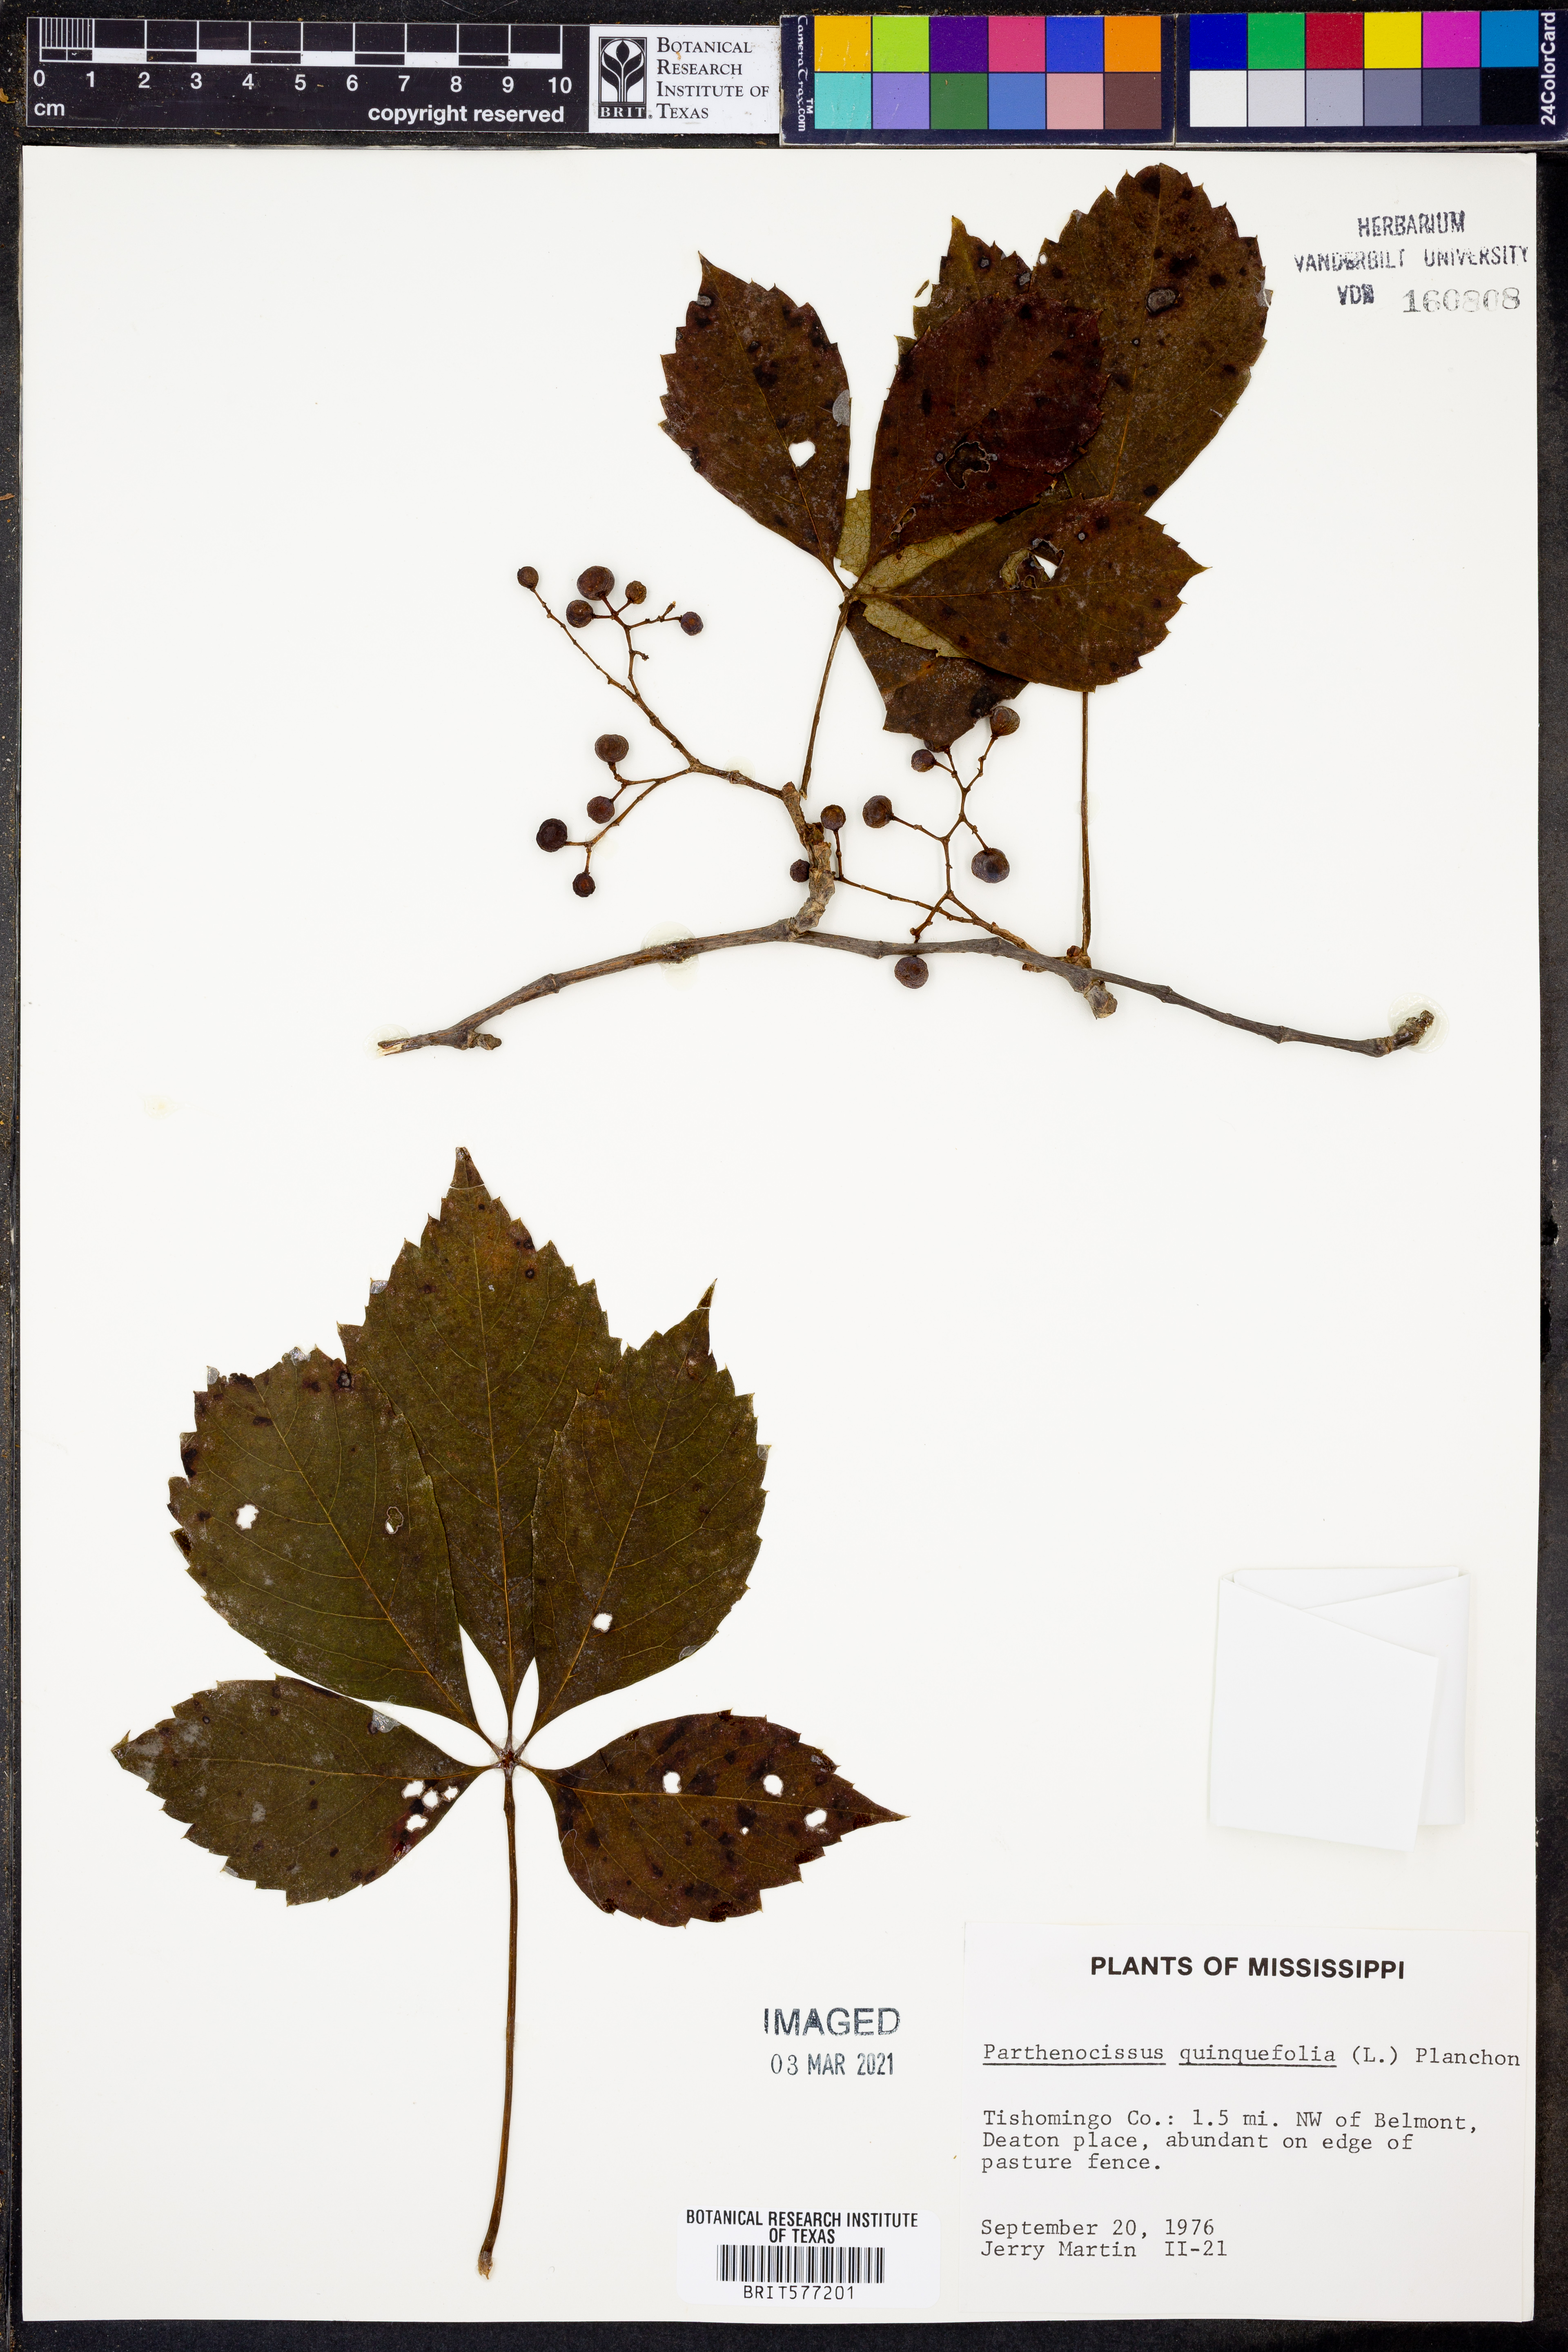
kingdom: Plantae
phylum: Tracheophyta
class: Magnoliopsida
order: Vitales
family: Vitaceae
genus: Parthenocissus
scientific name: Parthenocissus quinquefolia
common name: Virginia-creeper
